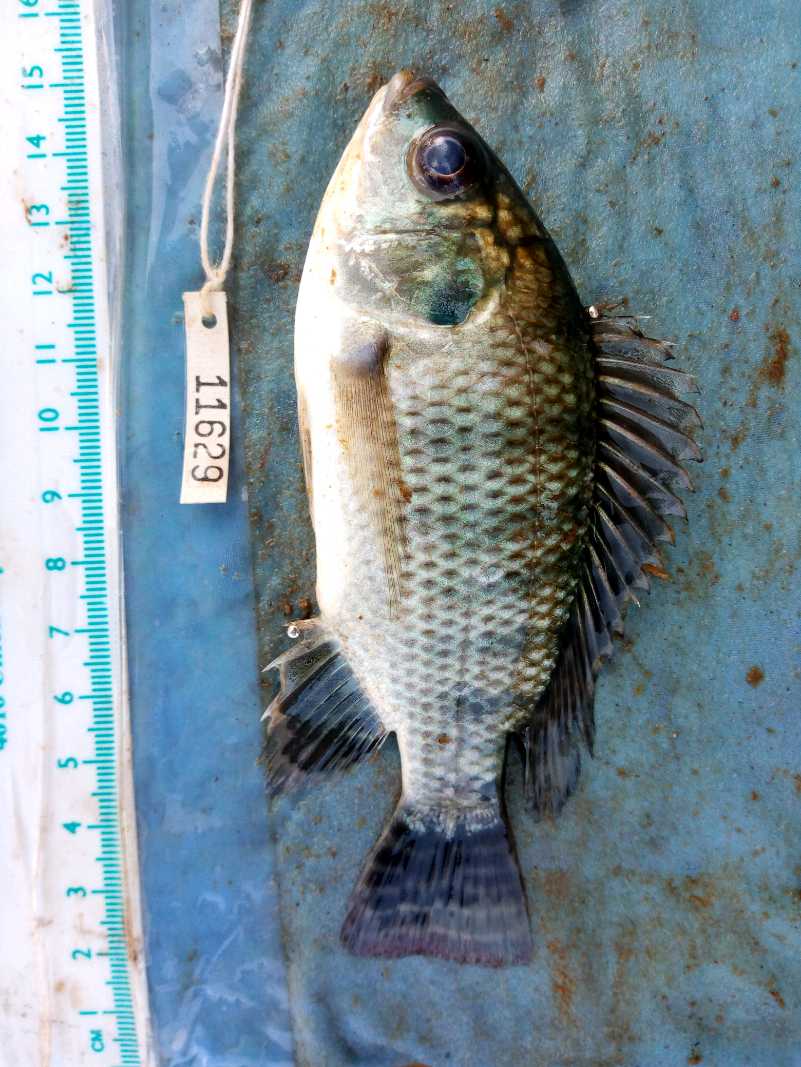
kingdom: Animalia
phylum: Chordata
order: Perciformes
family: Cichlidae
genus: Oreochromis
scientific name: Oreochromis niloticus
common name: Nile tilapia
